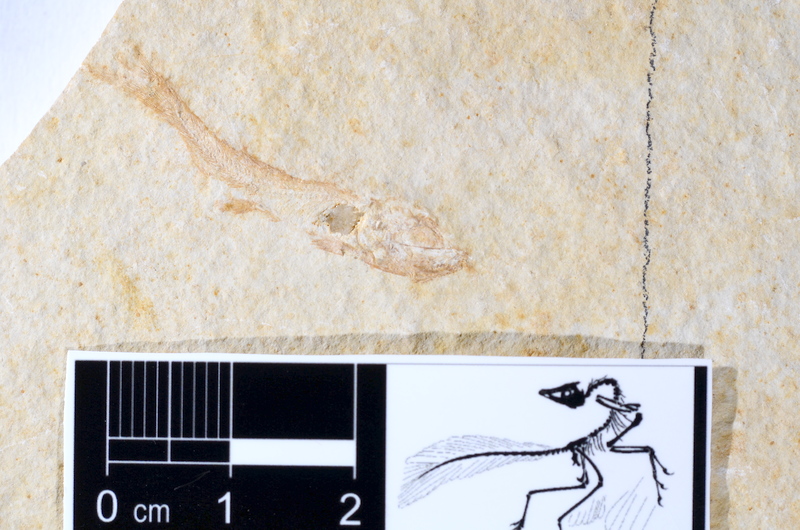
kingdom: Animalia
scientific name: Animalia
